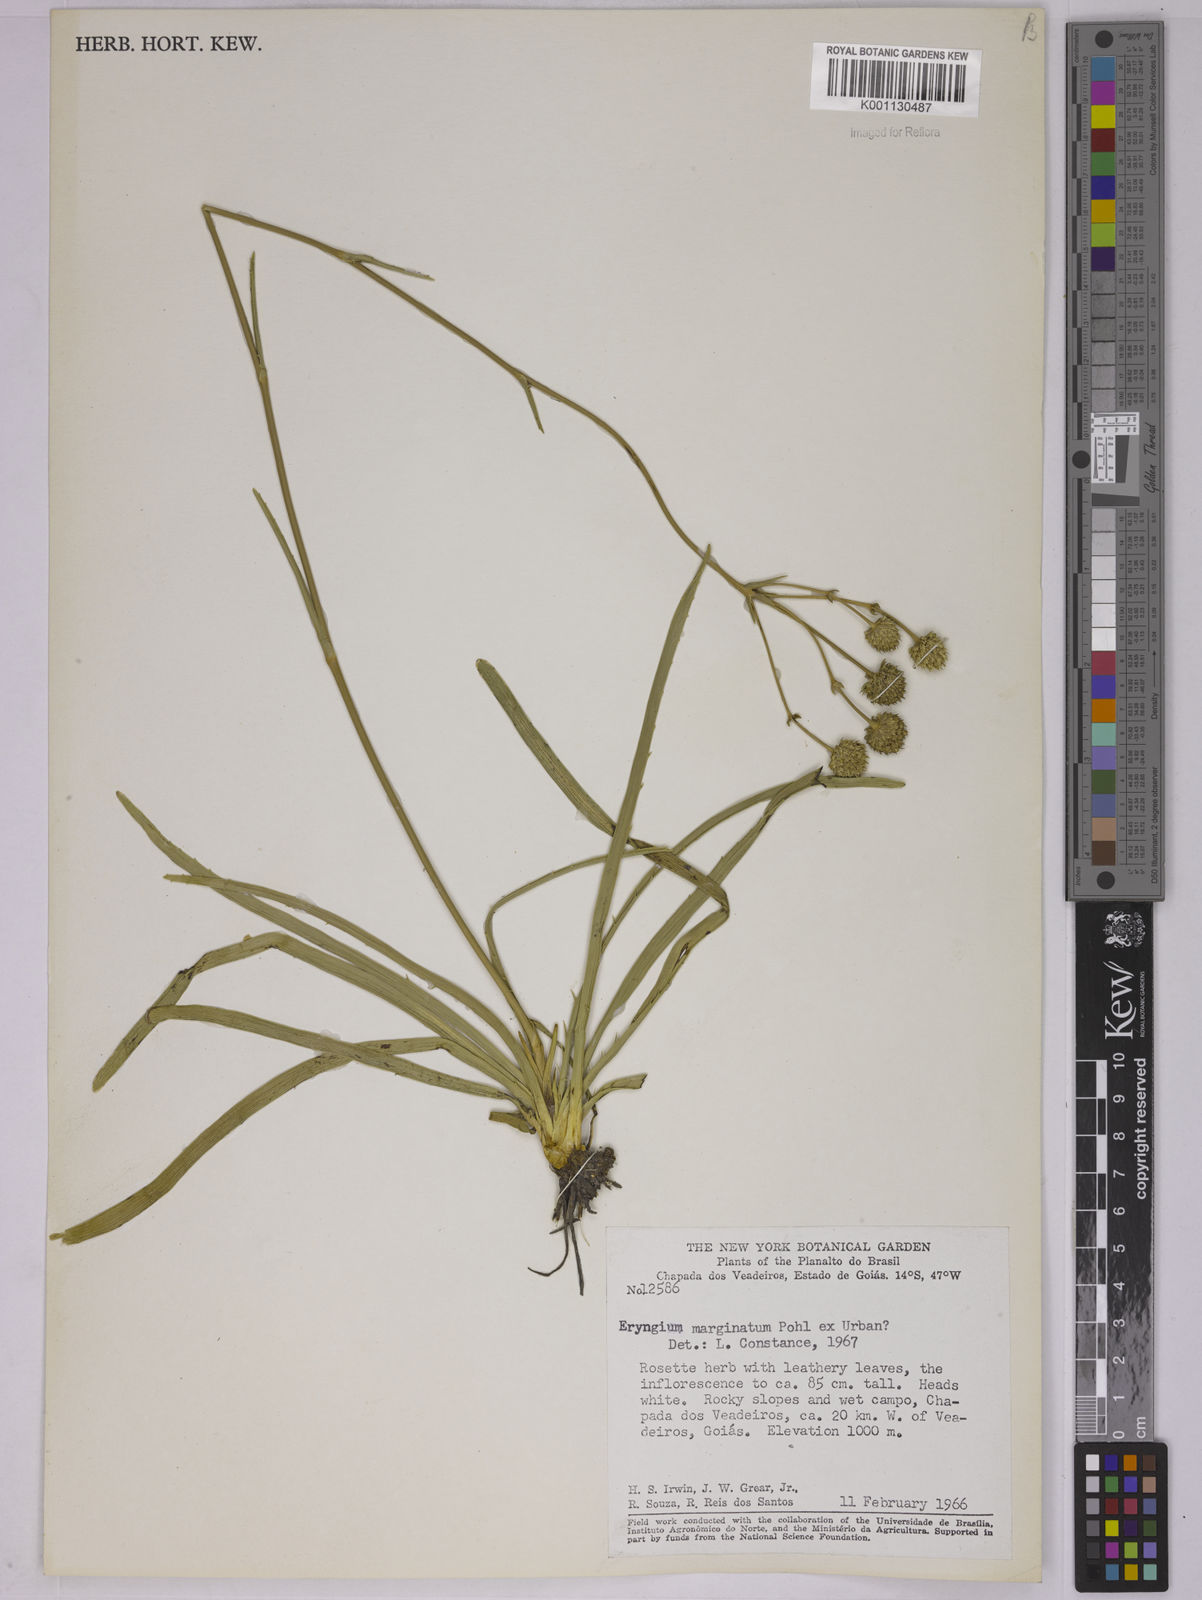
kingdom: Plantae
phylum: Tracheophyta
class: Magnoliopsida
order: Apiales
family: Apiaceae
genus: Eryngium
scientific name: Eryngium marginatum
